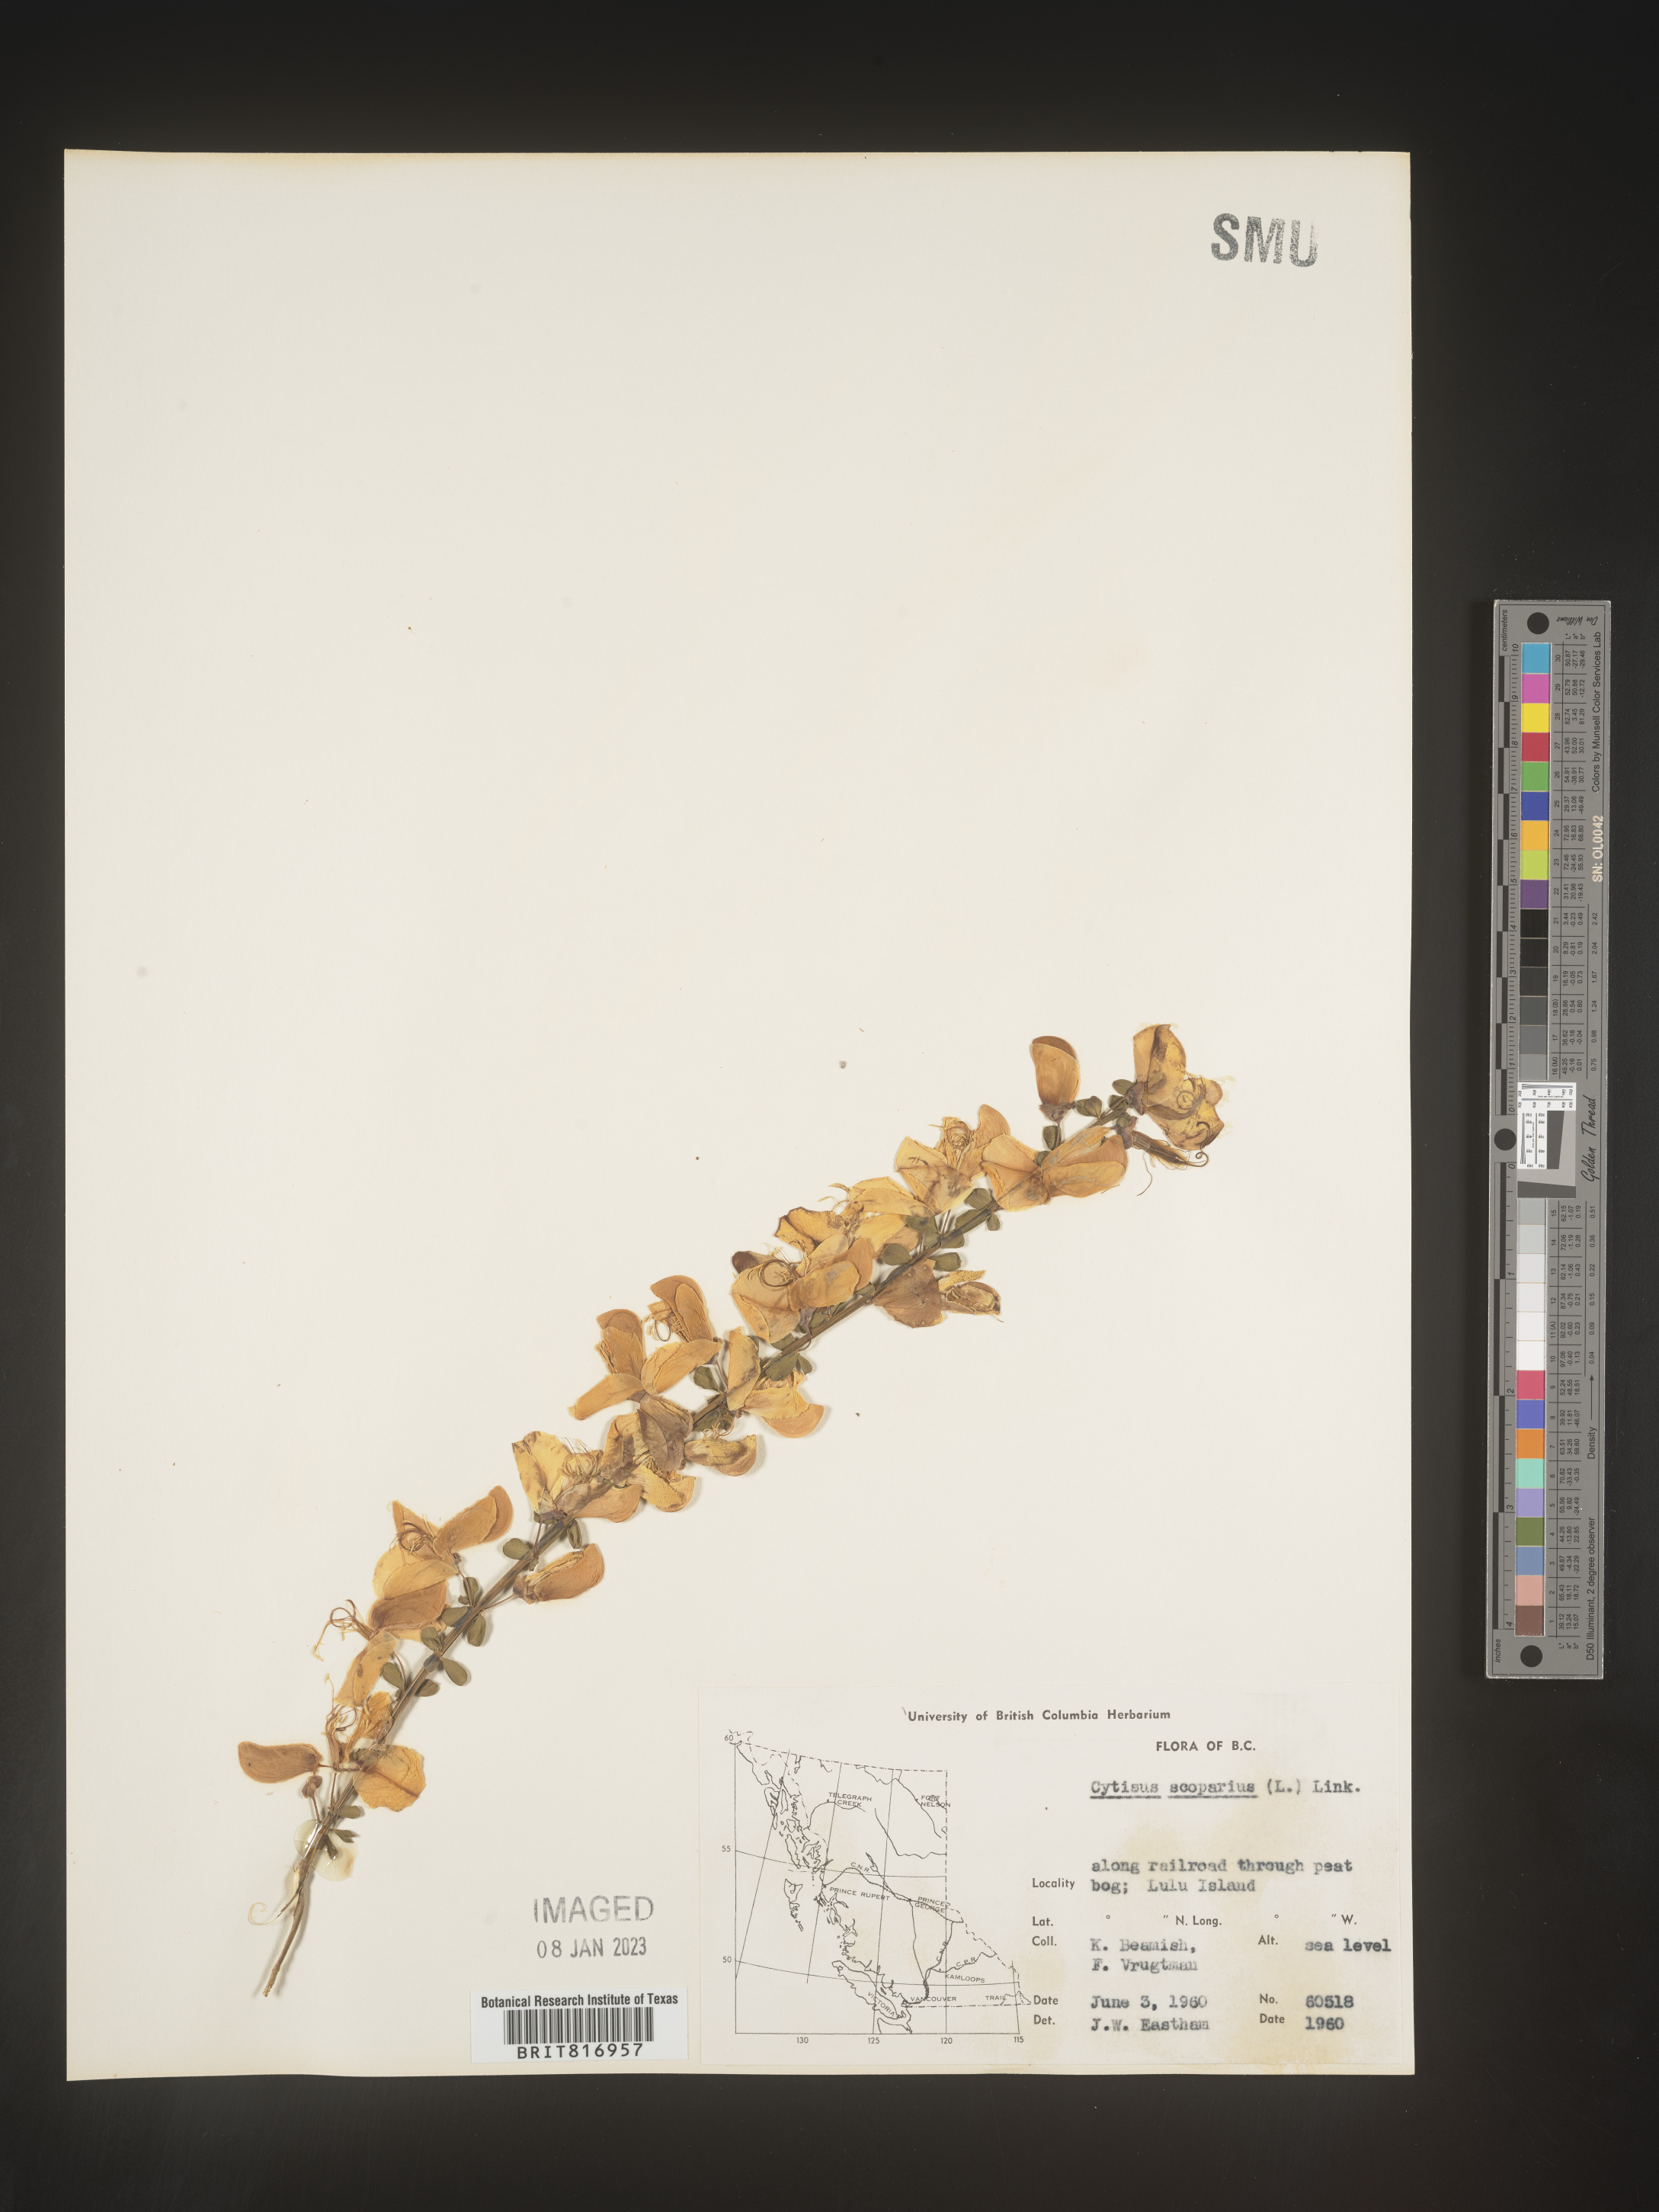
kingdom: Plantae
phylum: Tracheophyta
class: Magnoliopsida
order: Fabales
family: Fabaceae
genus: Cytisus
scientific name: Cytisus
